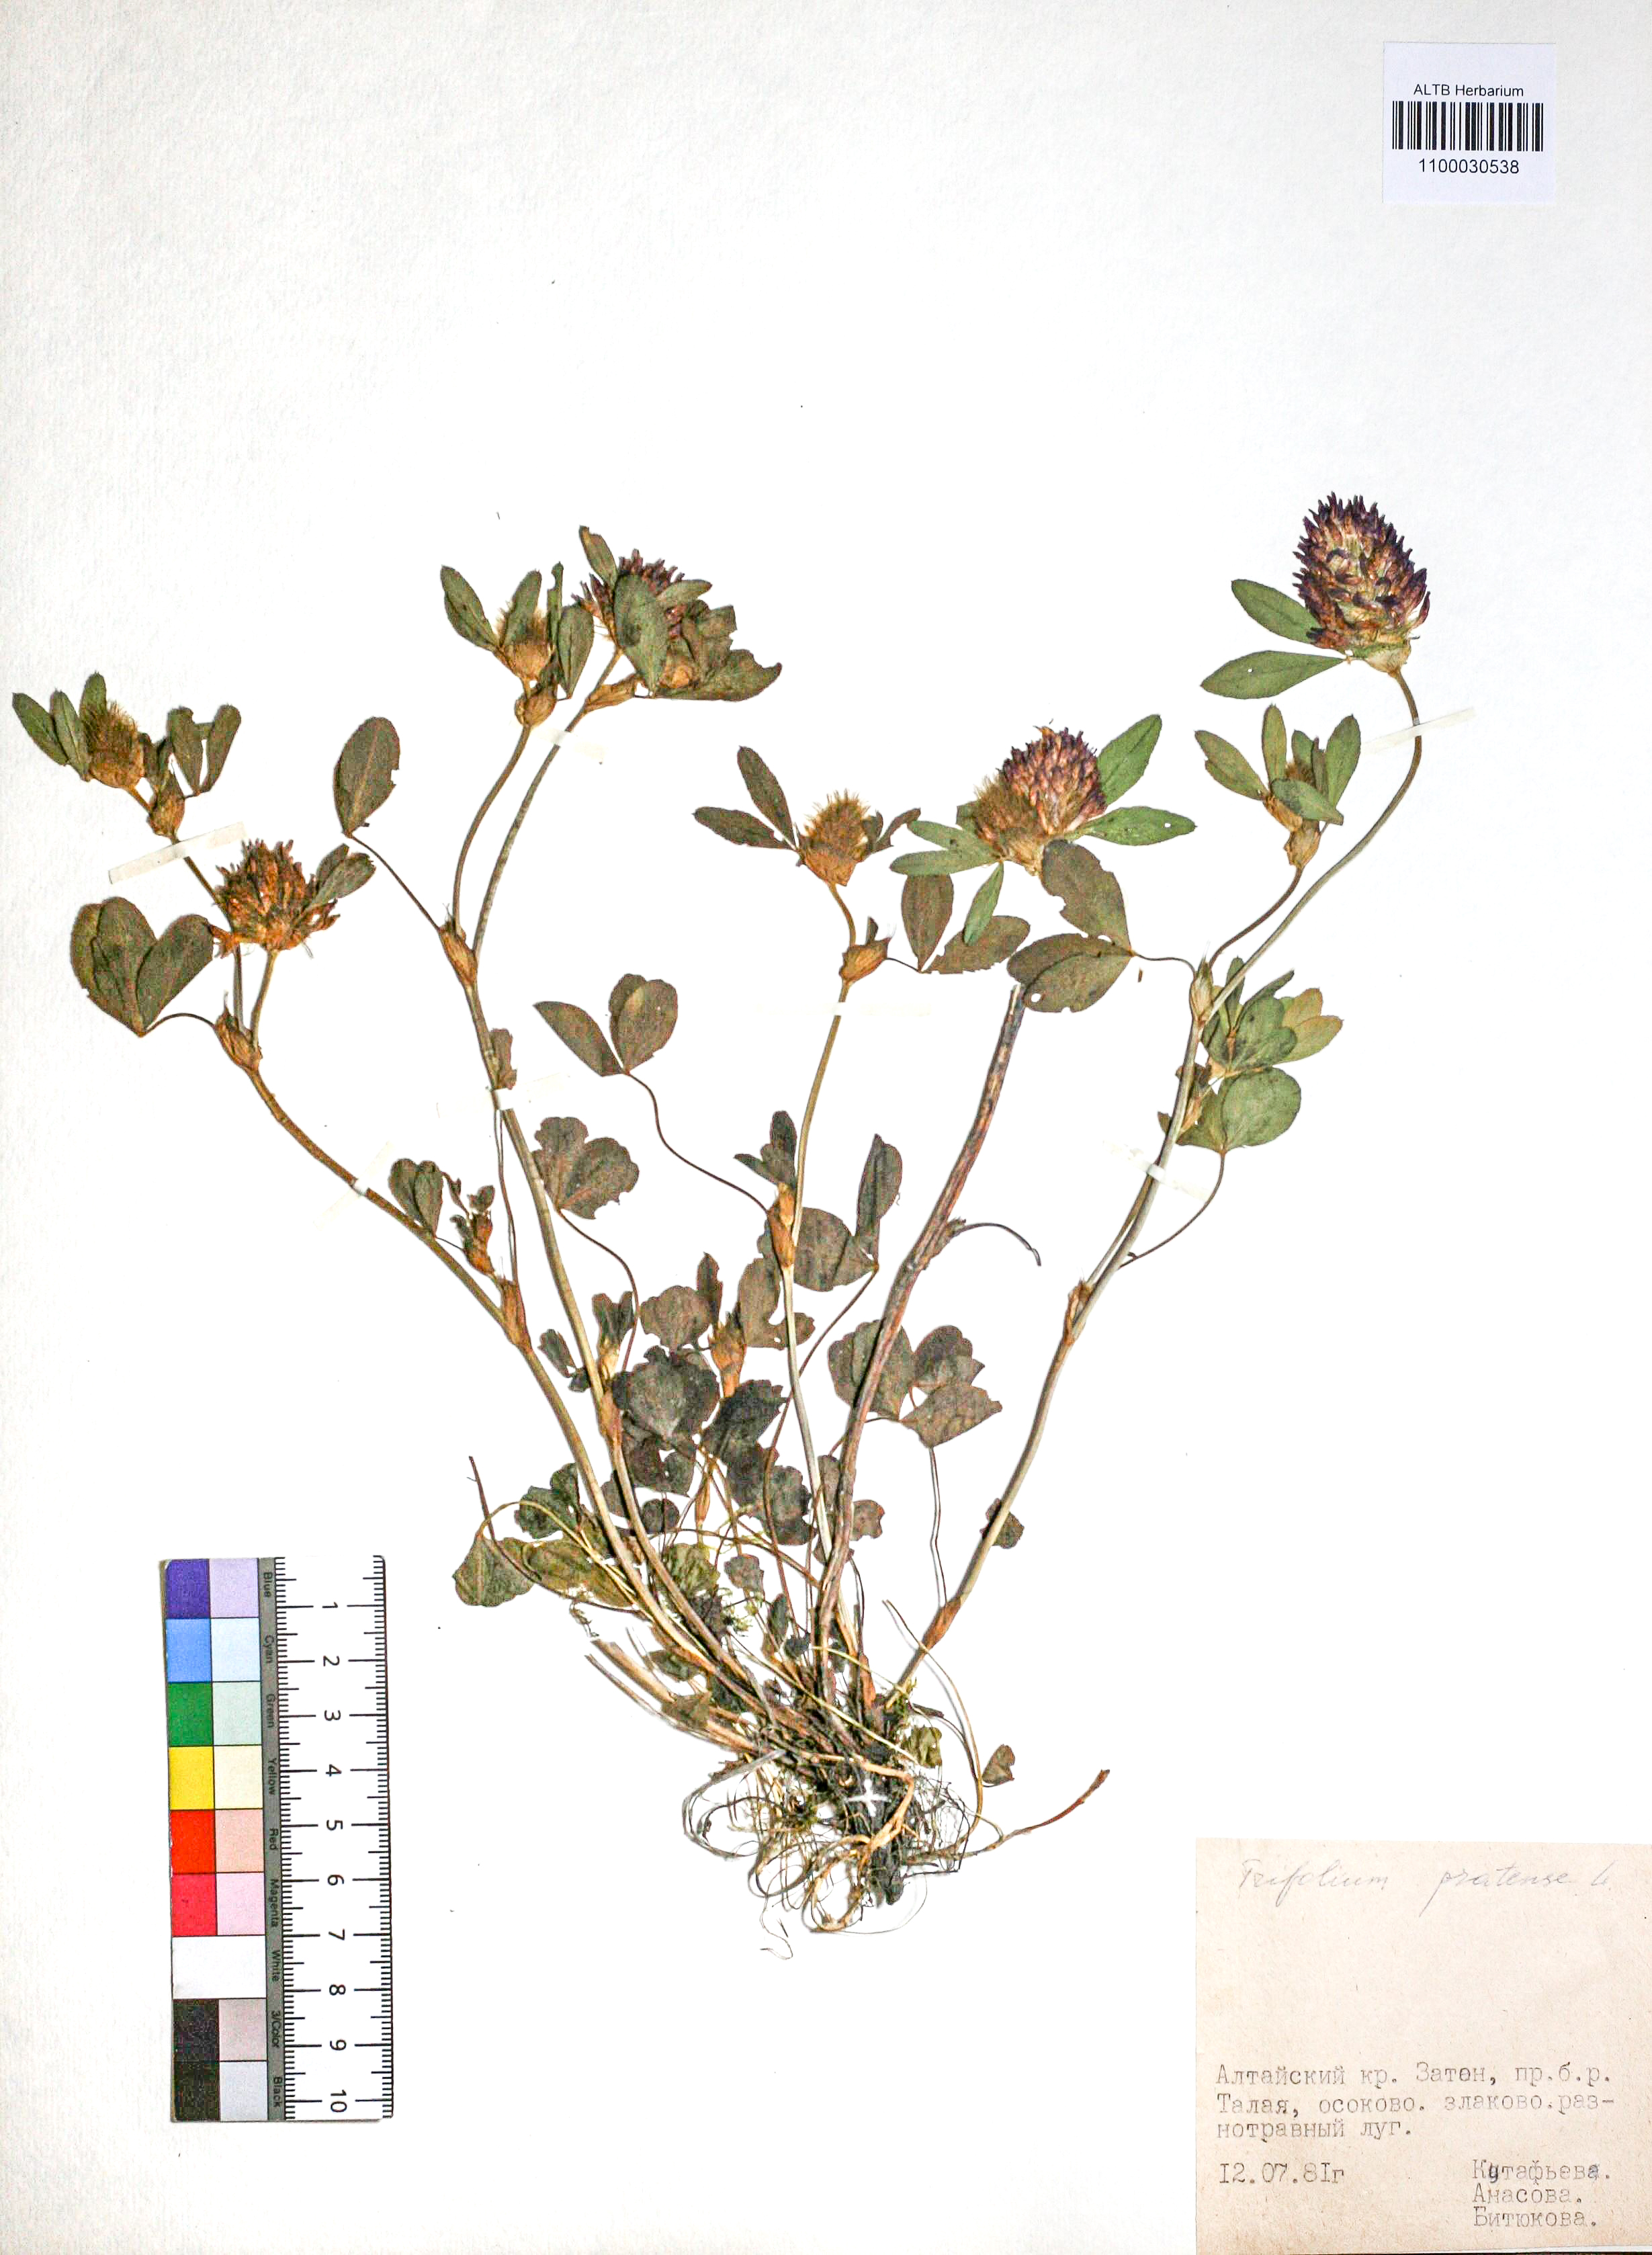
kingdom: Plantae
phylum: Tracheophyta
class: Magnoliopsida
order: Fabales
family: Fabaceae
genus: Trifolium
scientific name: Trifolium pratense
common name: Red clover
